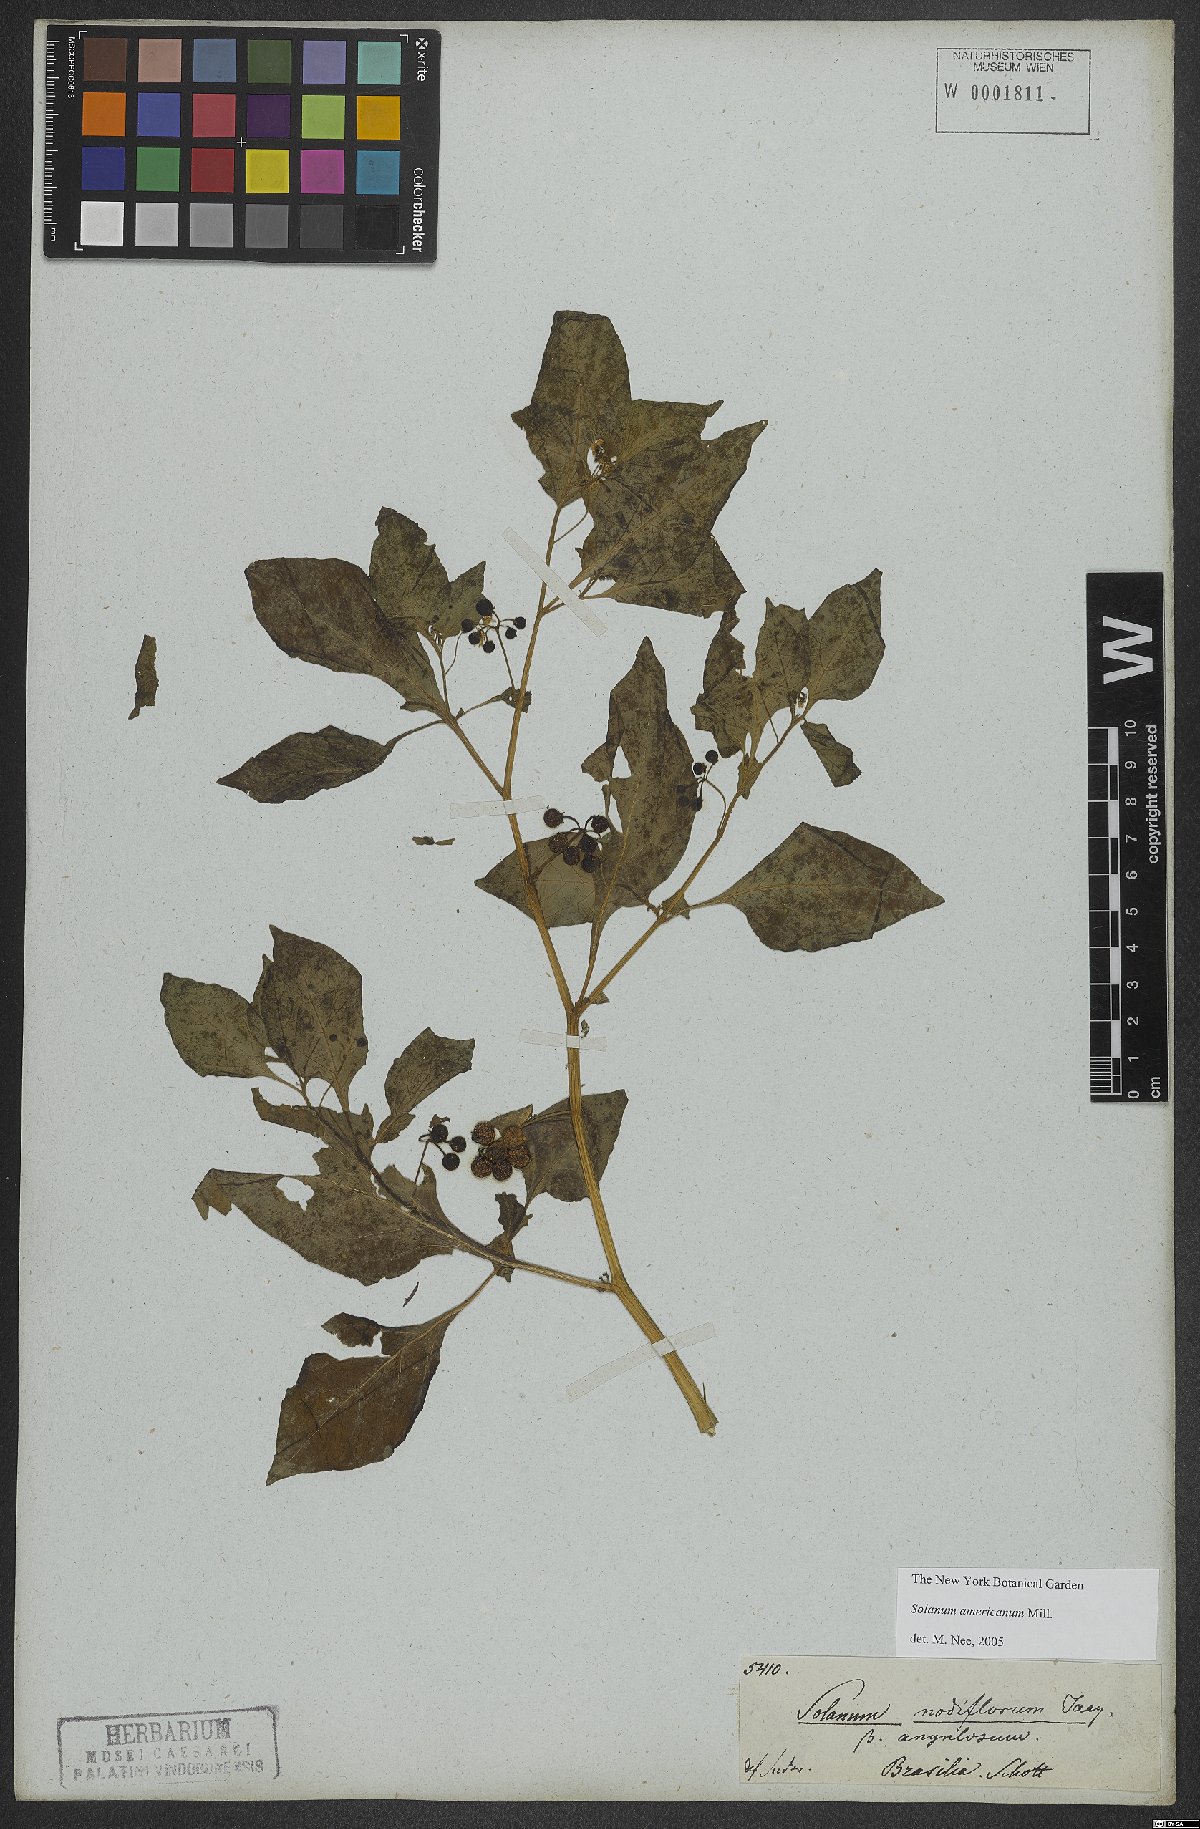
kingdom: Plantae
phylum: Tracheophyta
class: Magnoliopsida
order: Solanales
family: Solanaceae
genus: Solanum
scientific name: Solanum americanum
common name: American black nightshade
